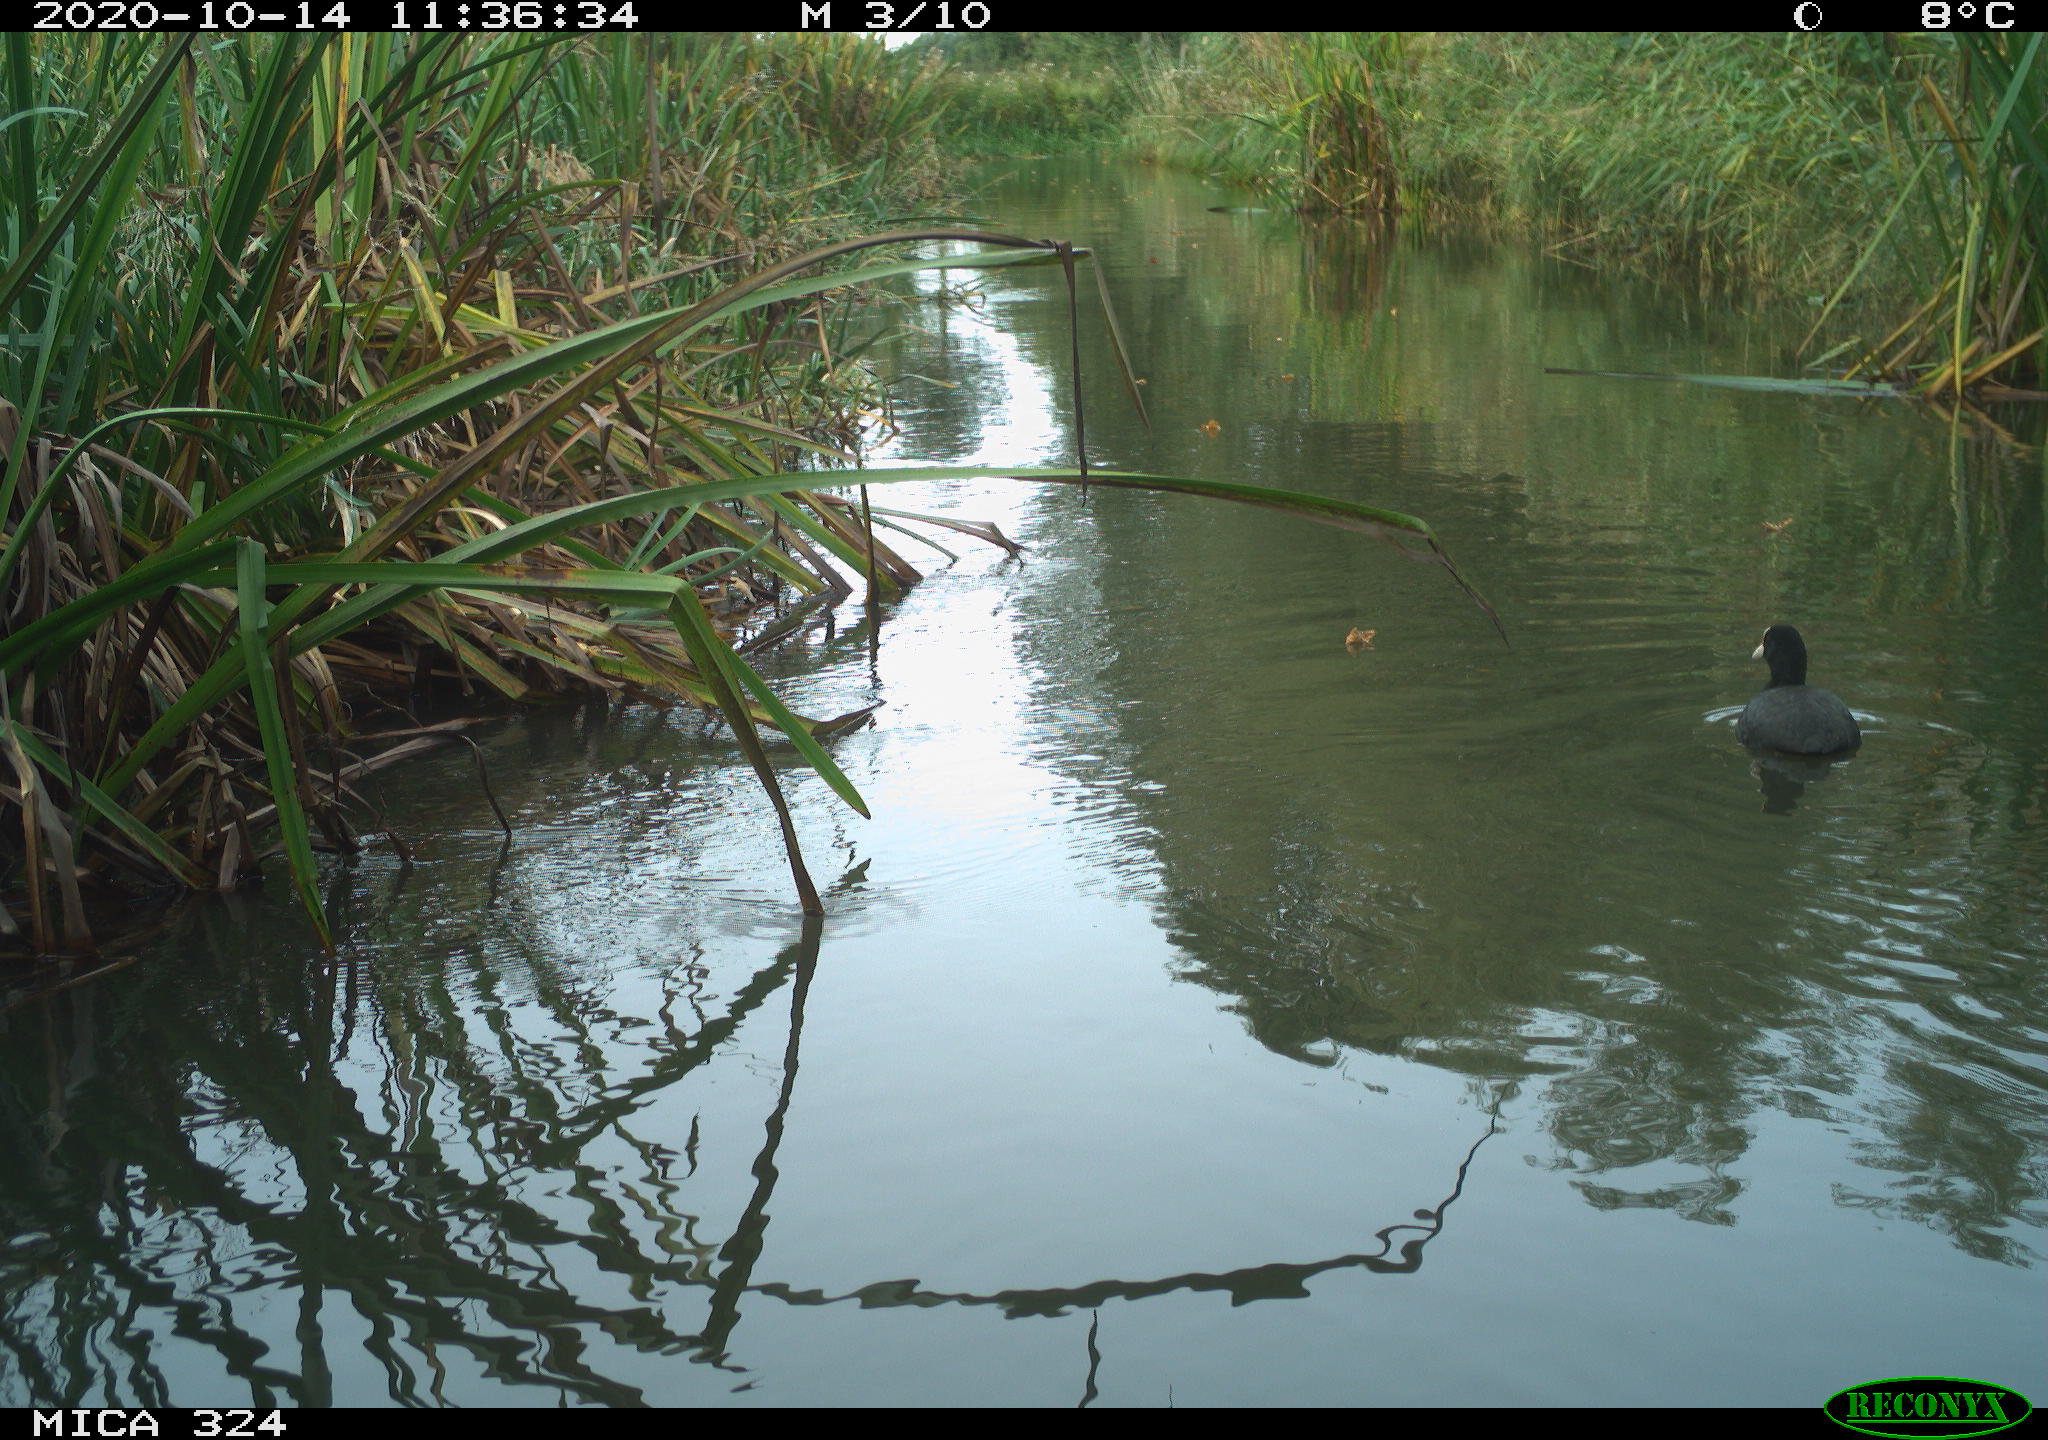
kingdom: Animalia
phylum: Chordata
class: Aves
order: Gruiformes
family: Rallidae
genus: Fulica
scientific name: Fulica atra
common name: Eurasian coot
